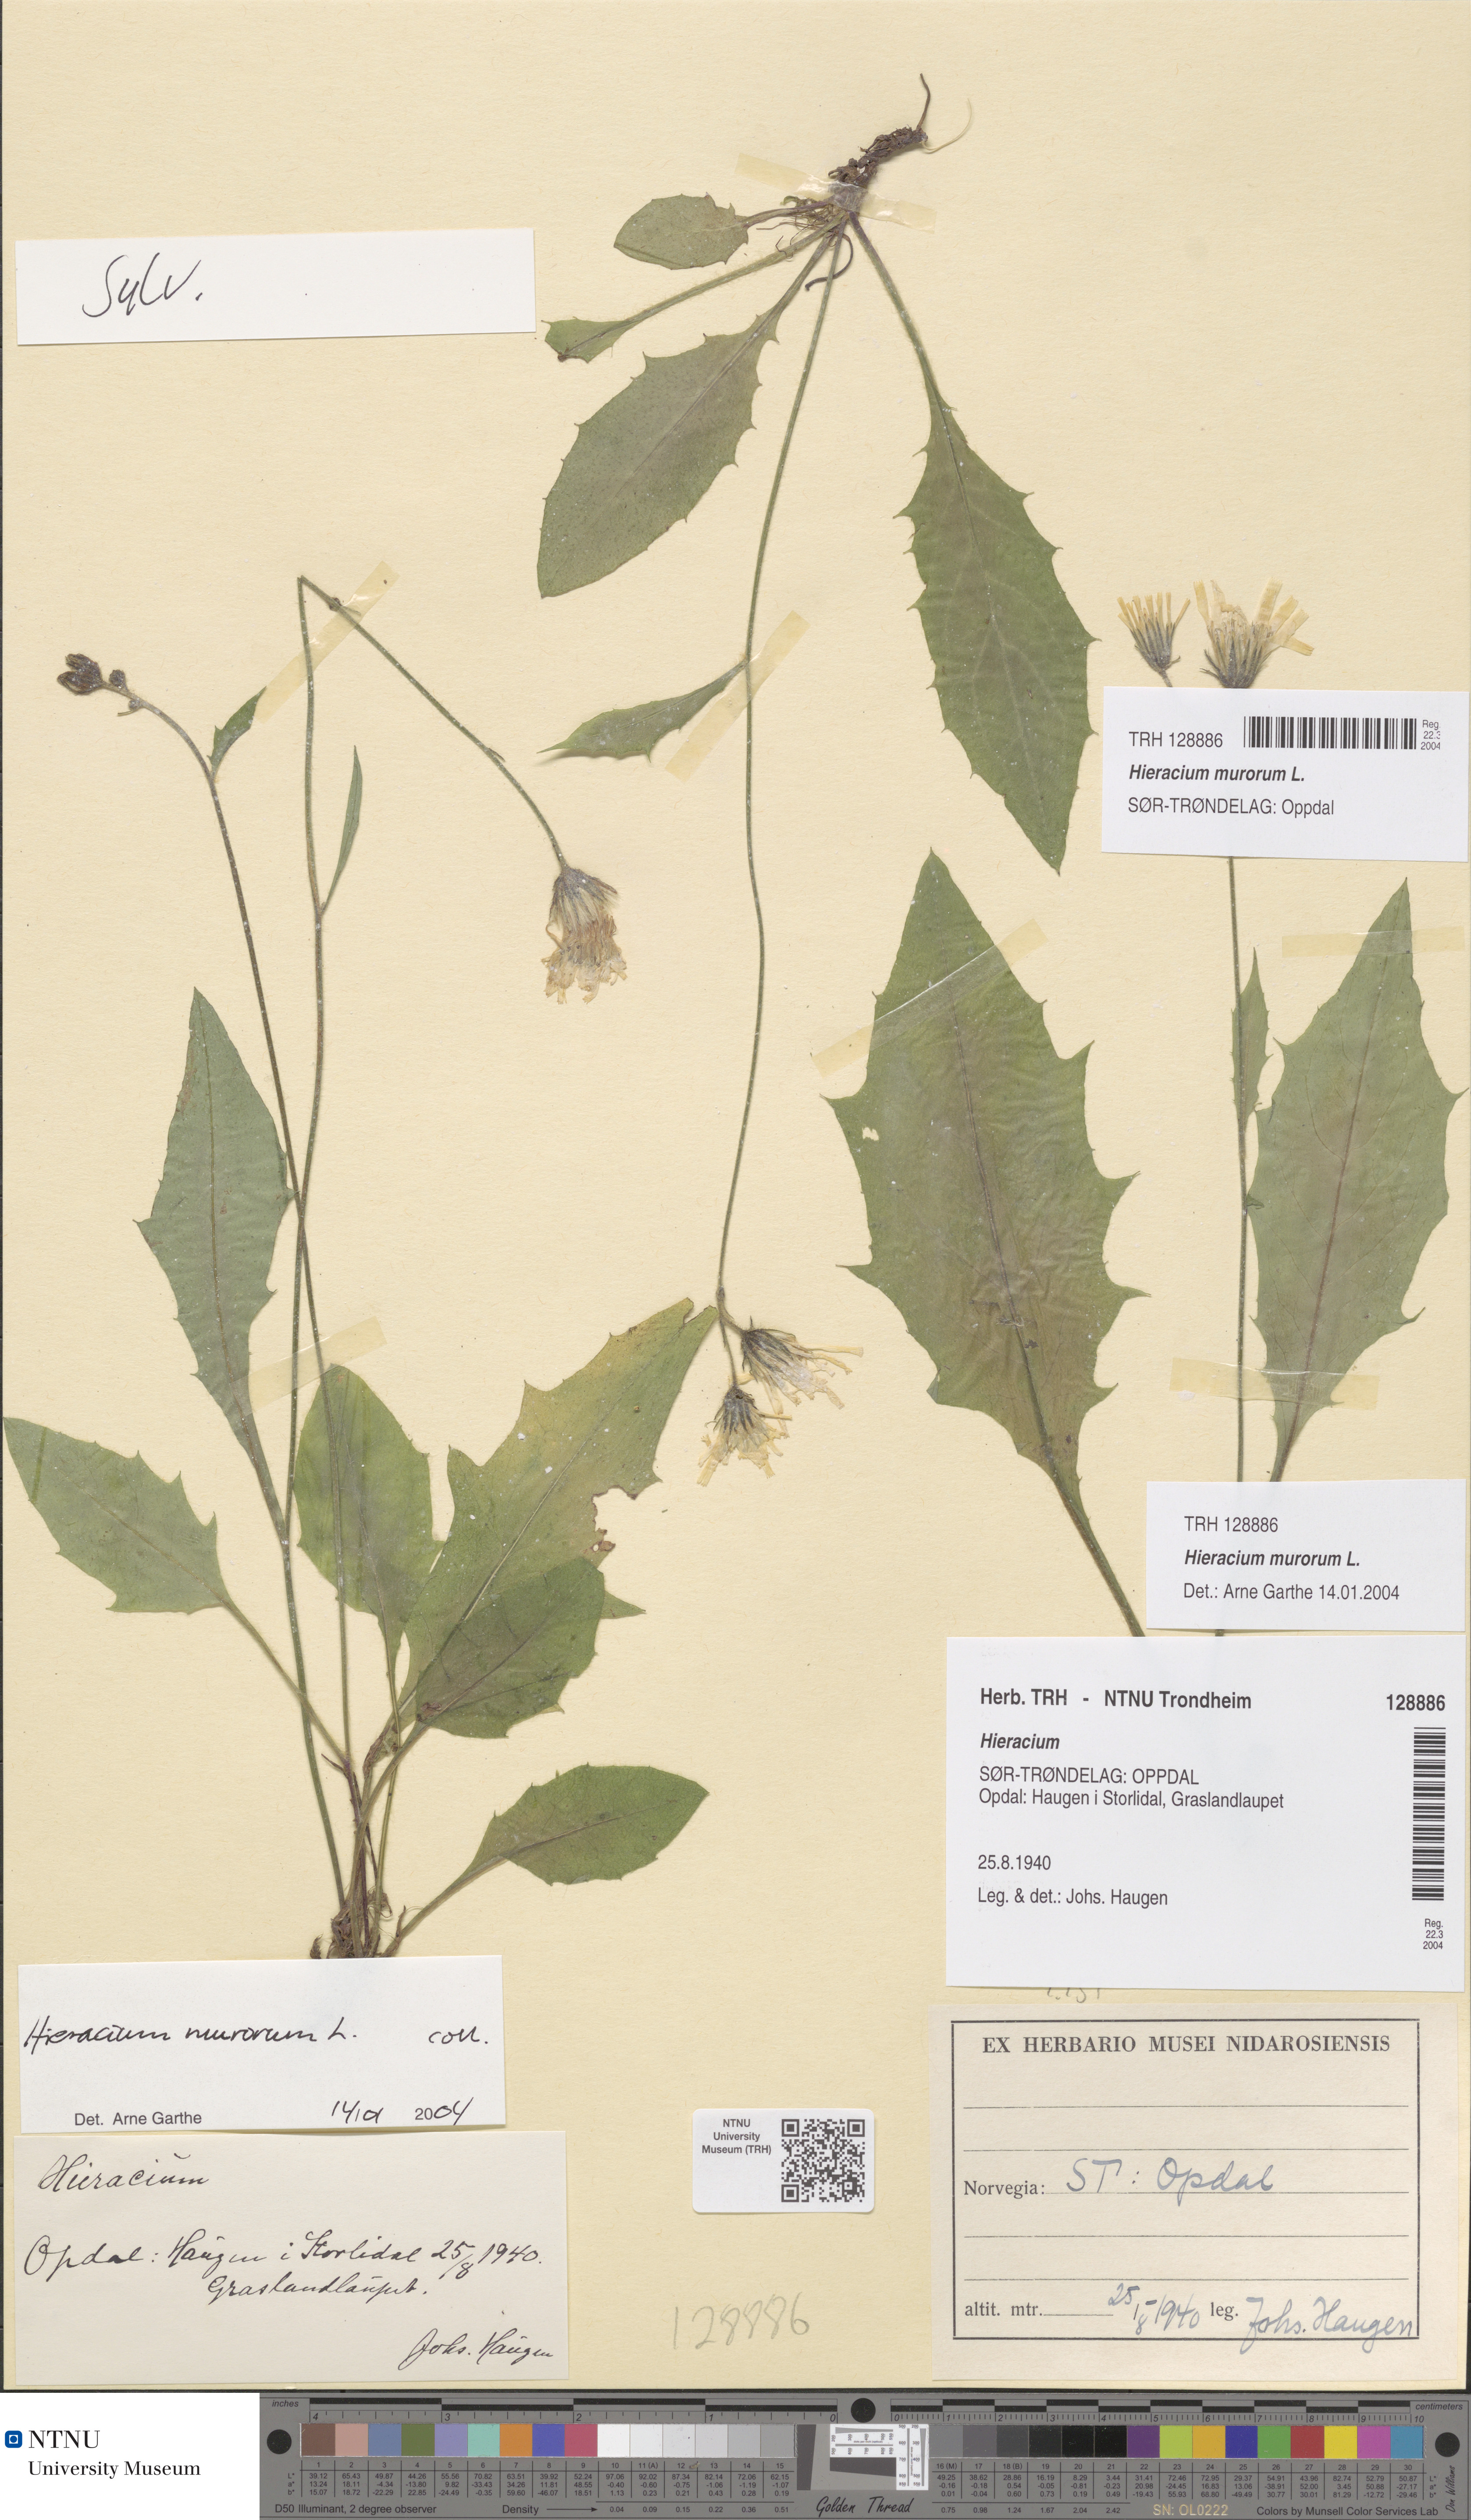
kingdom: Plantae
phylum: Tracheophyta
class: Magnoliopsida
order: Asterales
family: Asteraceae
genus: Hieracium
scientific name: Hieracium murorum
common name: Wall hawkweed
